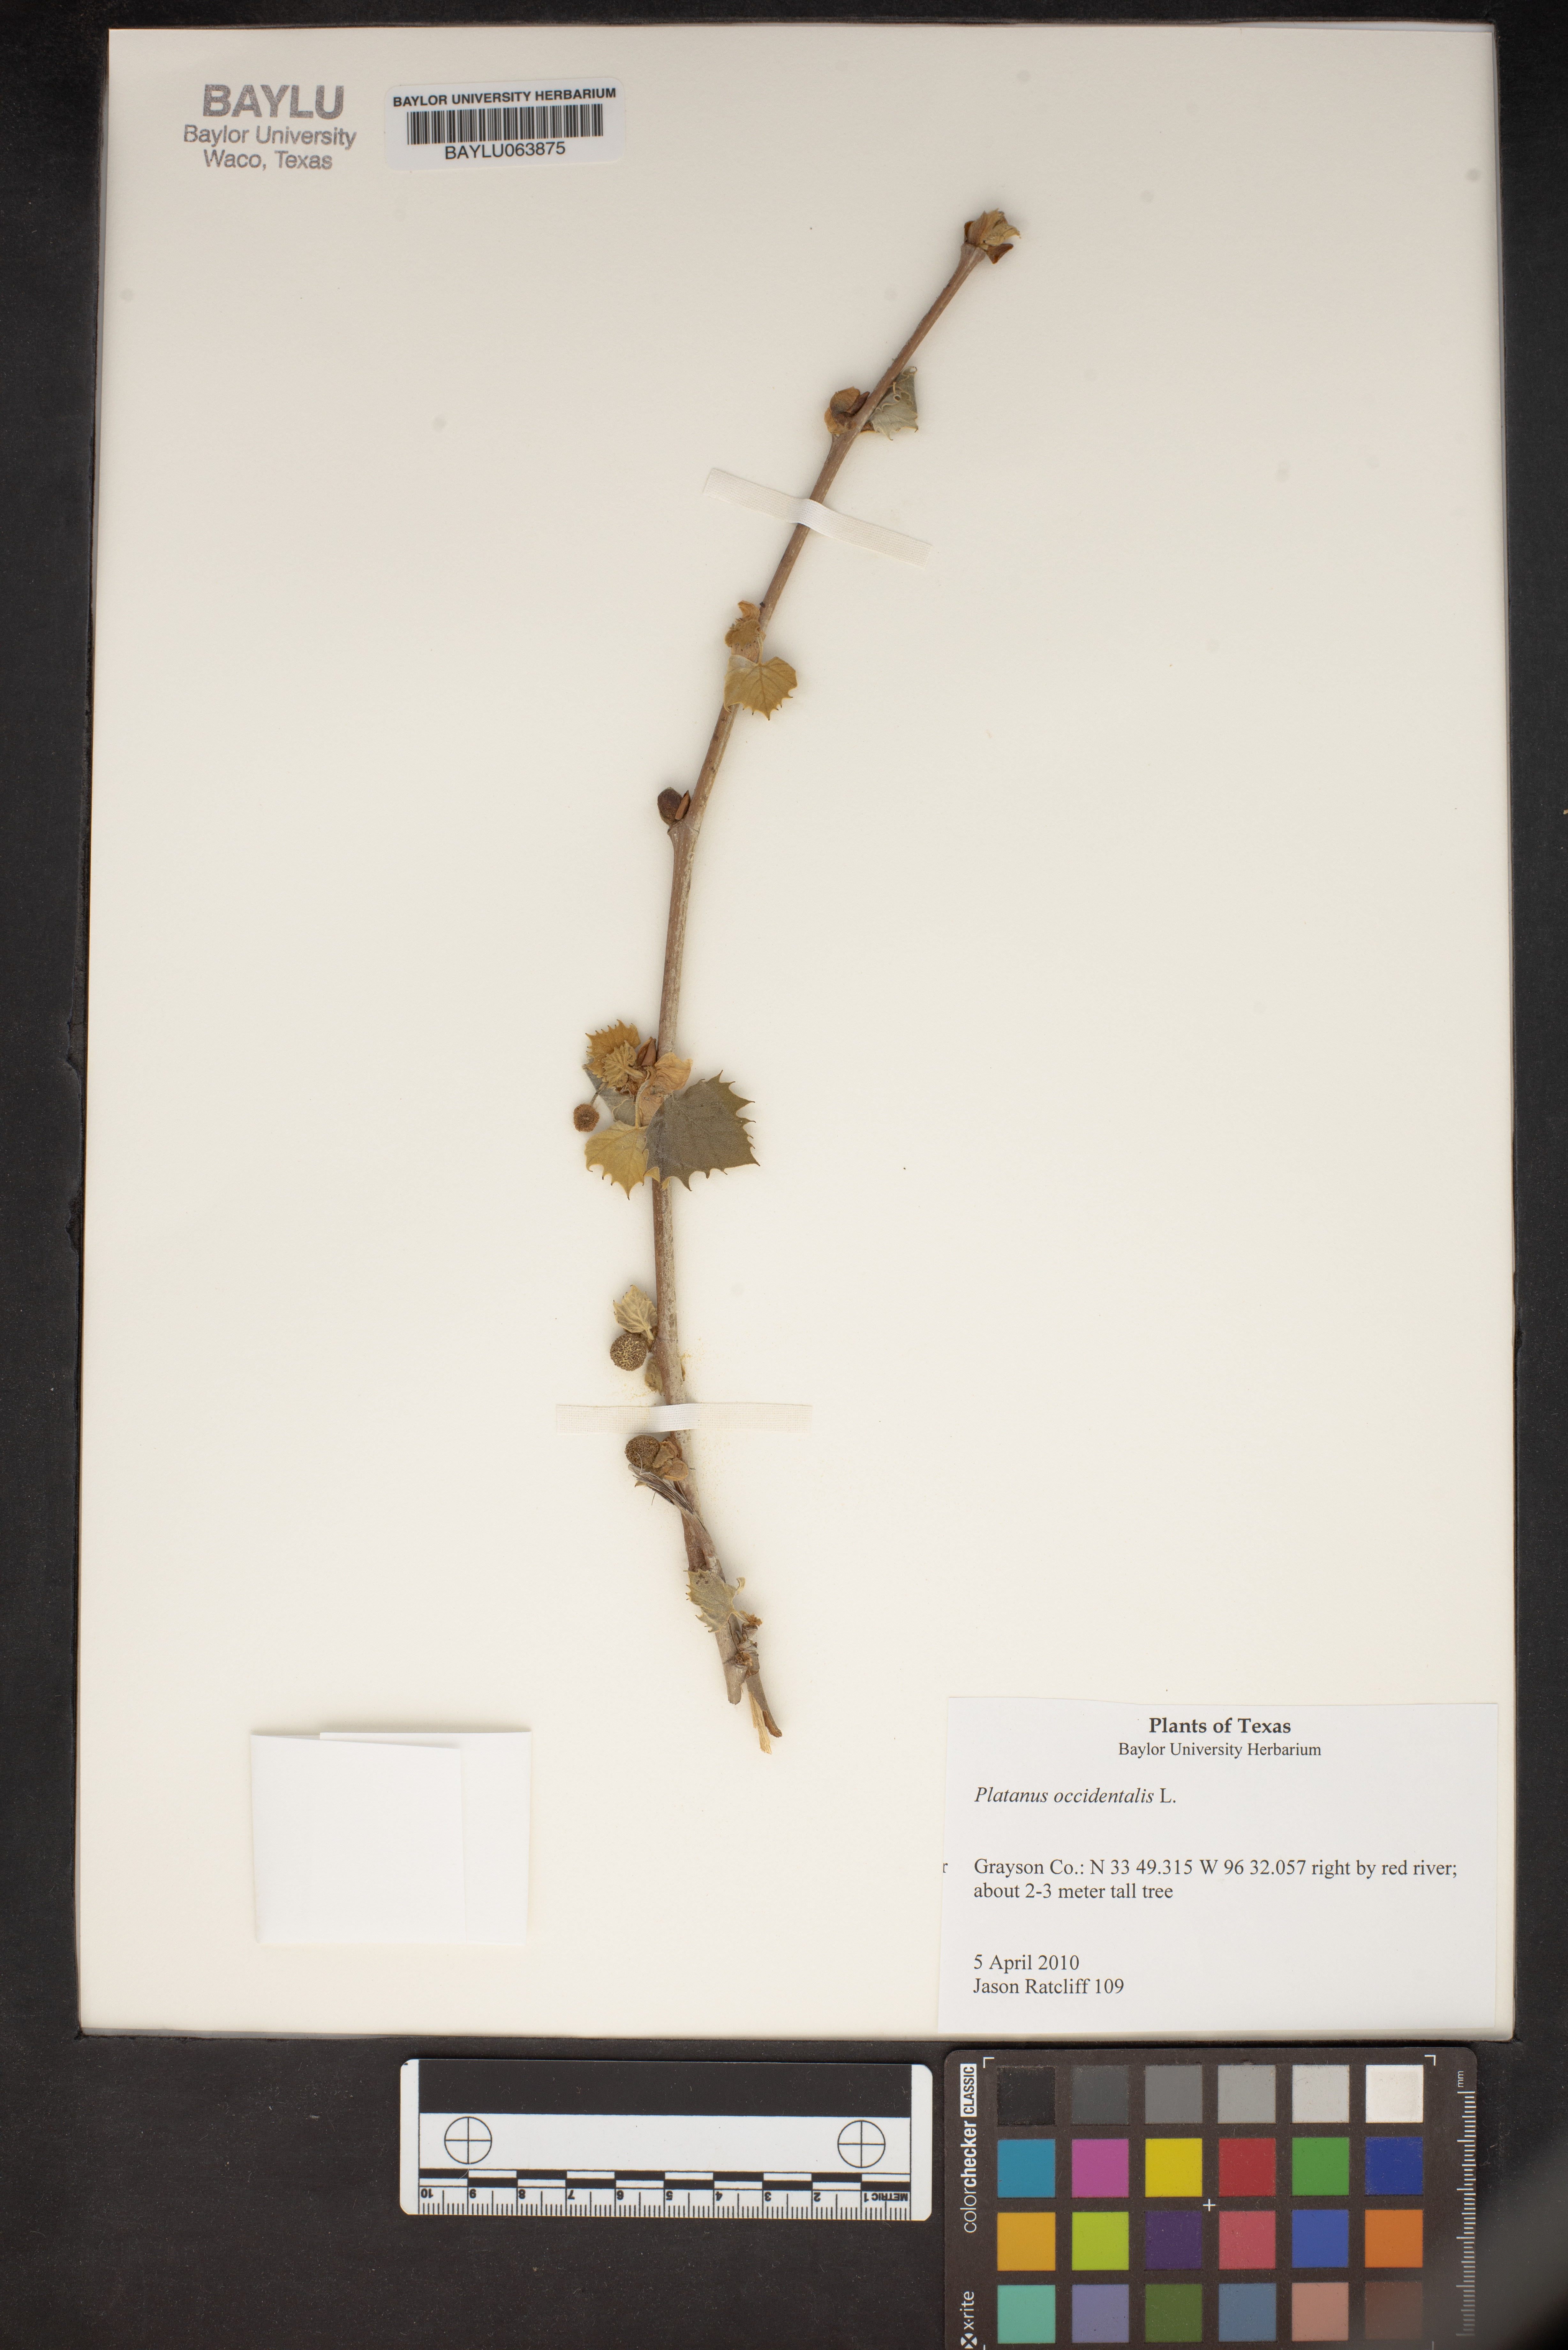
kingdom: Plantae
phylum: Tracheophyta
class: Magnoliopsida
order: Proteales
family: Platanaceae
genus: Platanus
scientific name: Platanus occidentalis
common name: American sycamore
